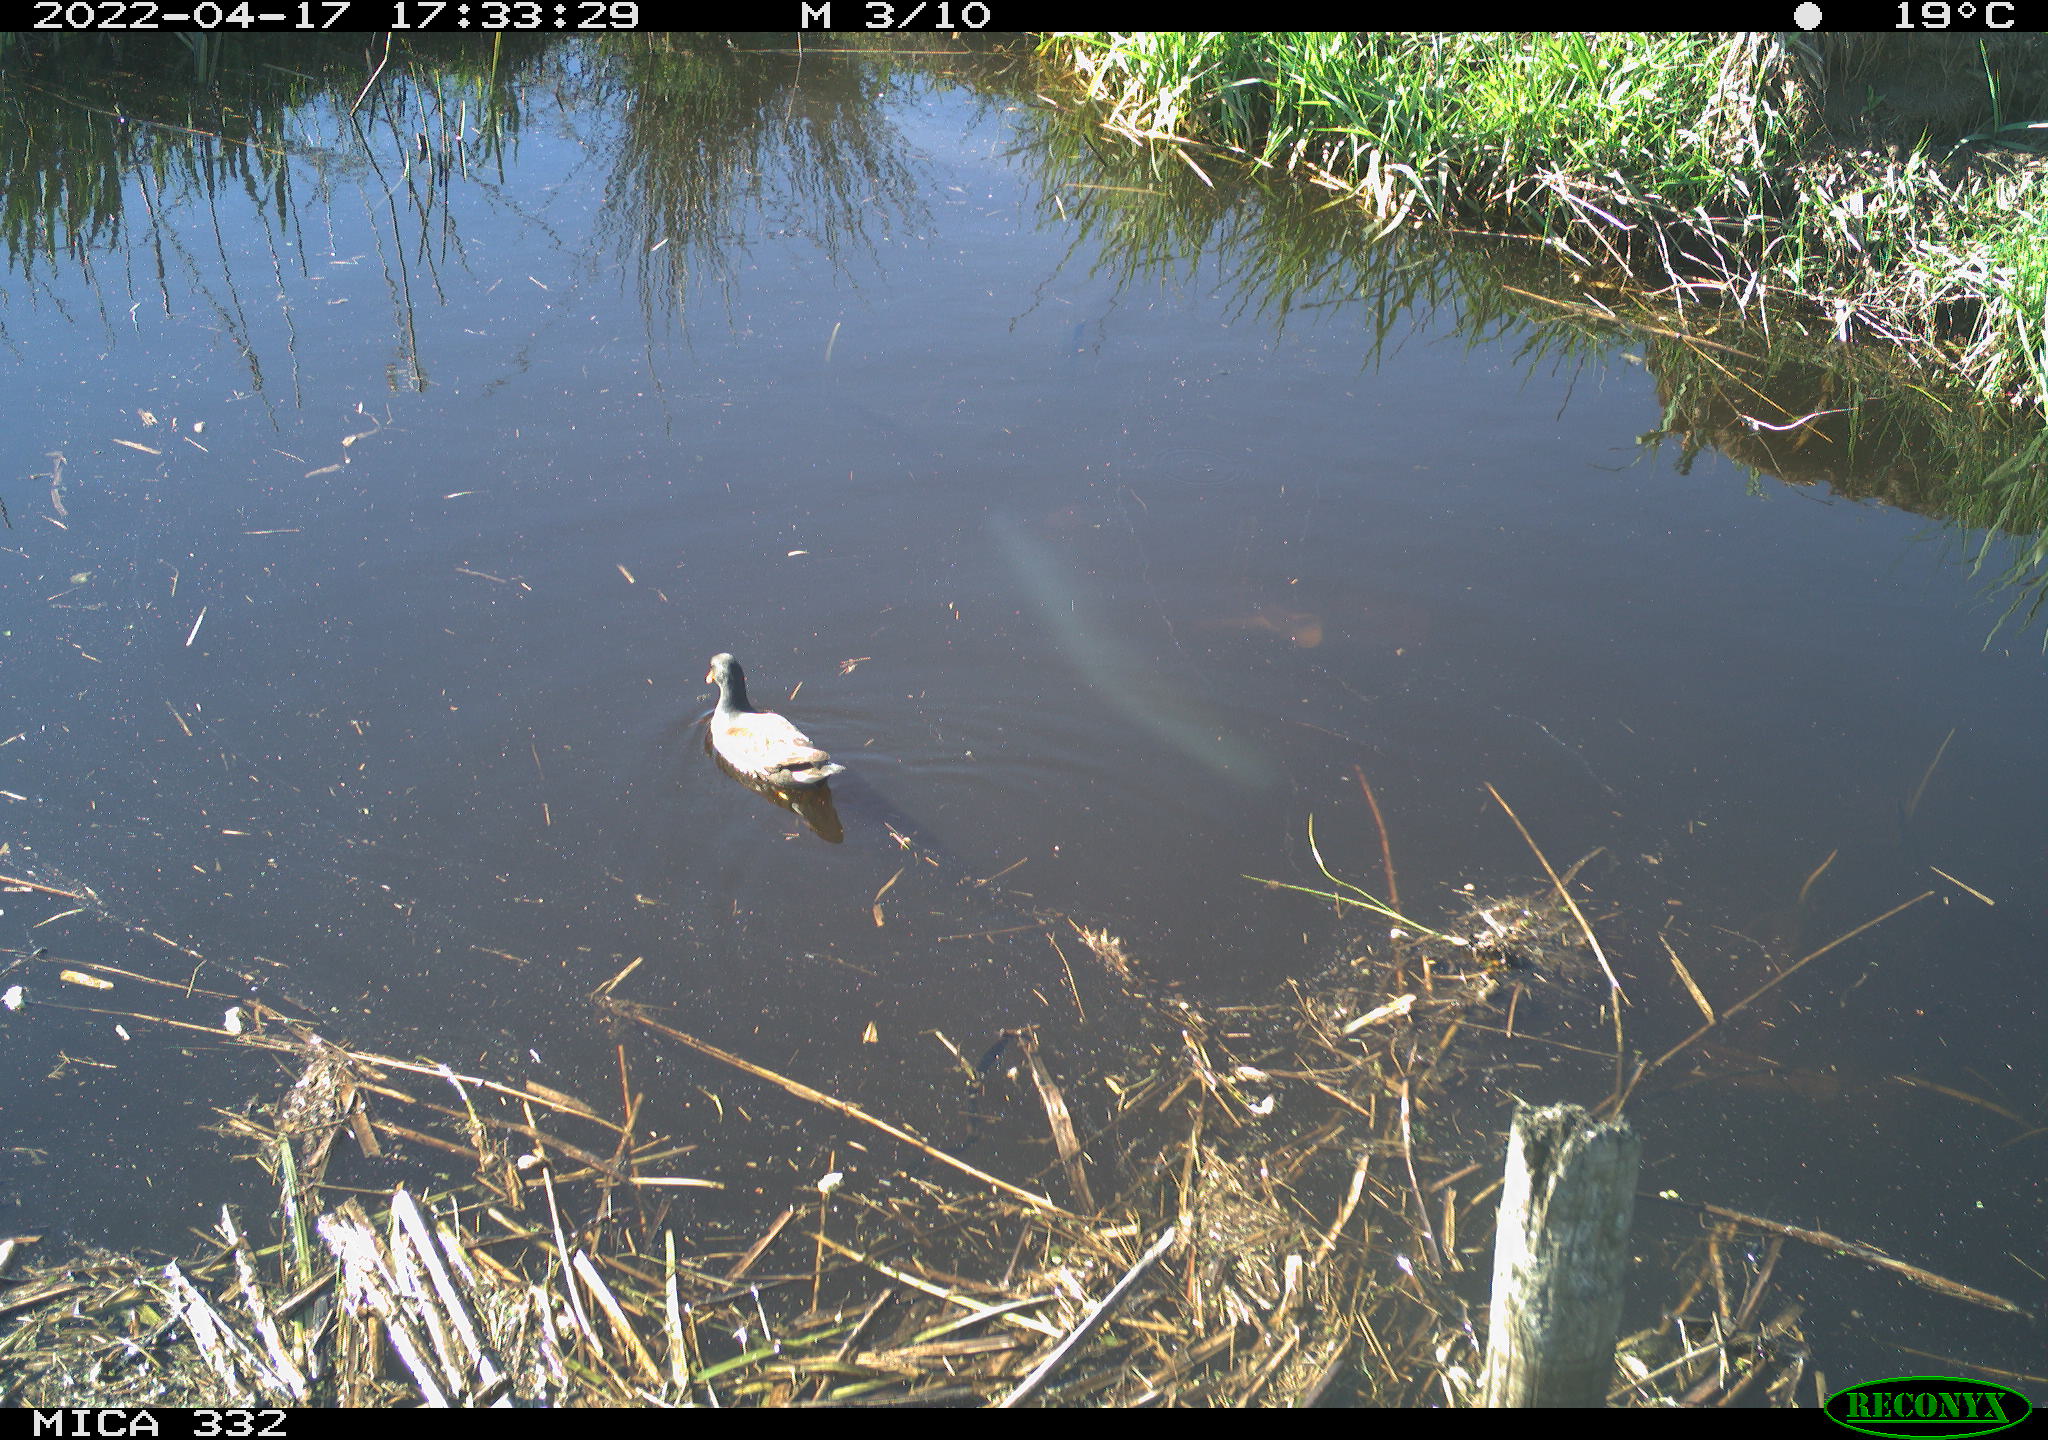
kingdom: Animalia
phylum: Chordata
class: Aves
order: Gruiformes
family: Rallidae
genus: Gallinula
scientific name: Gallinula chloropus
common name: Common moorhen
